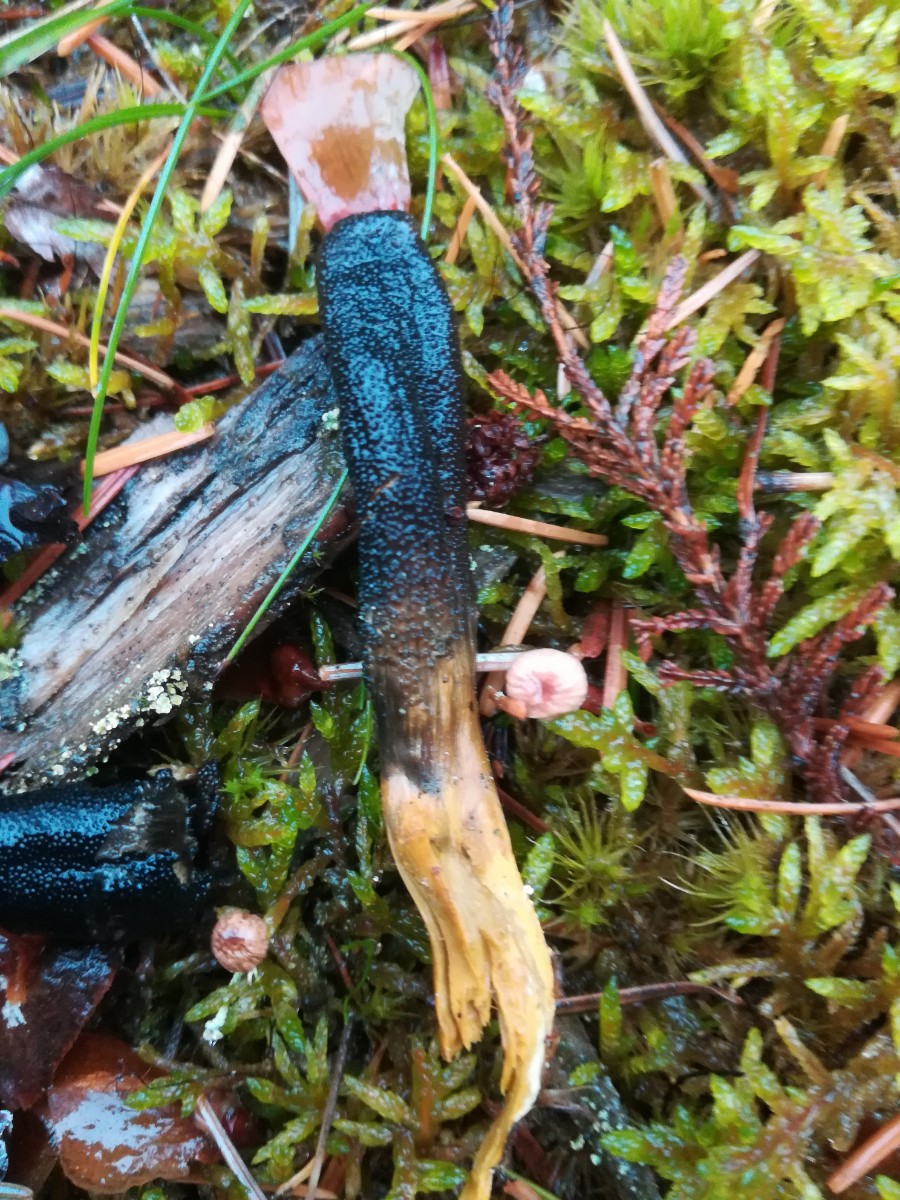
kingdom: Fungi
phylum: Ascomycota
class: Sordariomycetes
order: Hypocreales
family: Ophiocordycipitaceae
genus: Tolypocladium
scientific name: Tolypocladium ophioglossoides
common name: slank snyltekølle
